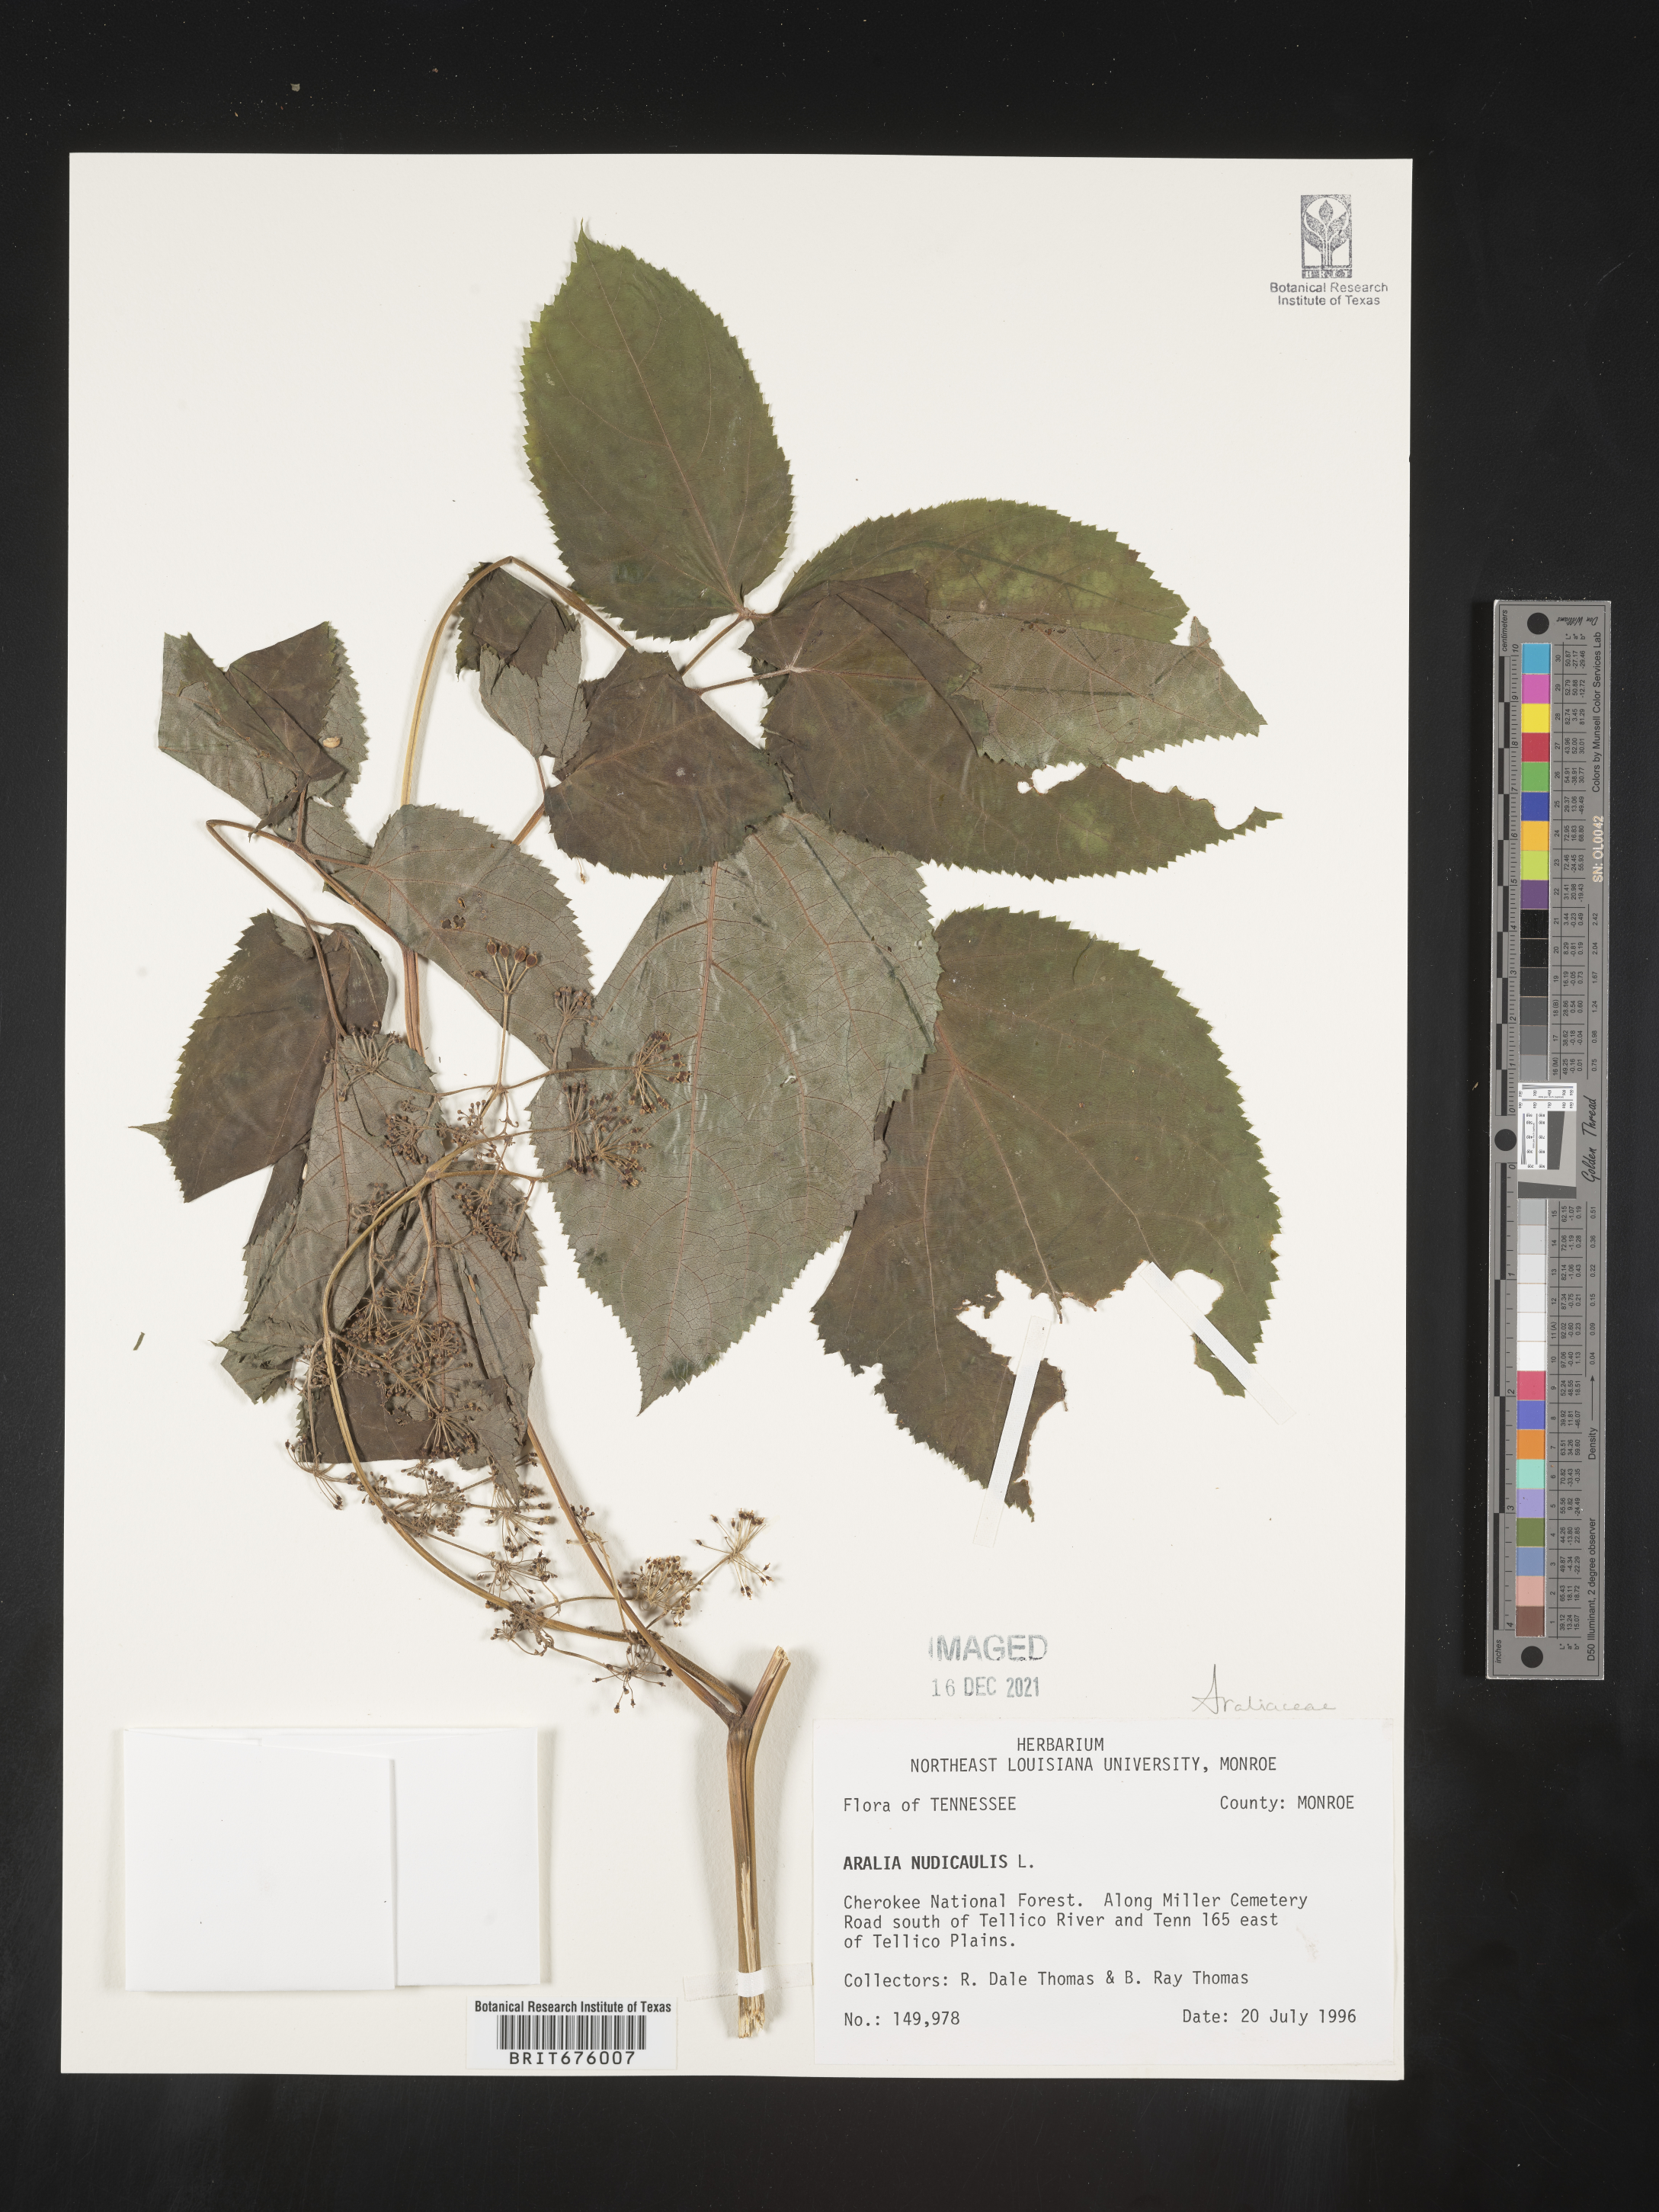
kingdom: Plantae
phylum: Tracheophyta
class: Magnoliopsida
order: Apiales
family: Araliaceae
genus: Aralia
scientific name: Aralia nudicaulis
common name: Wild sarsaparilla
